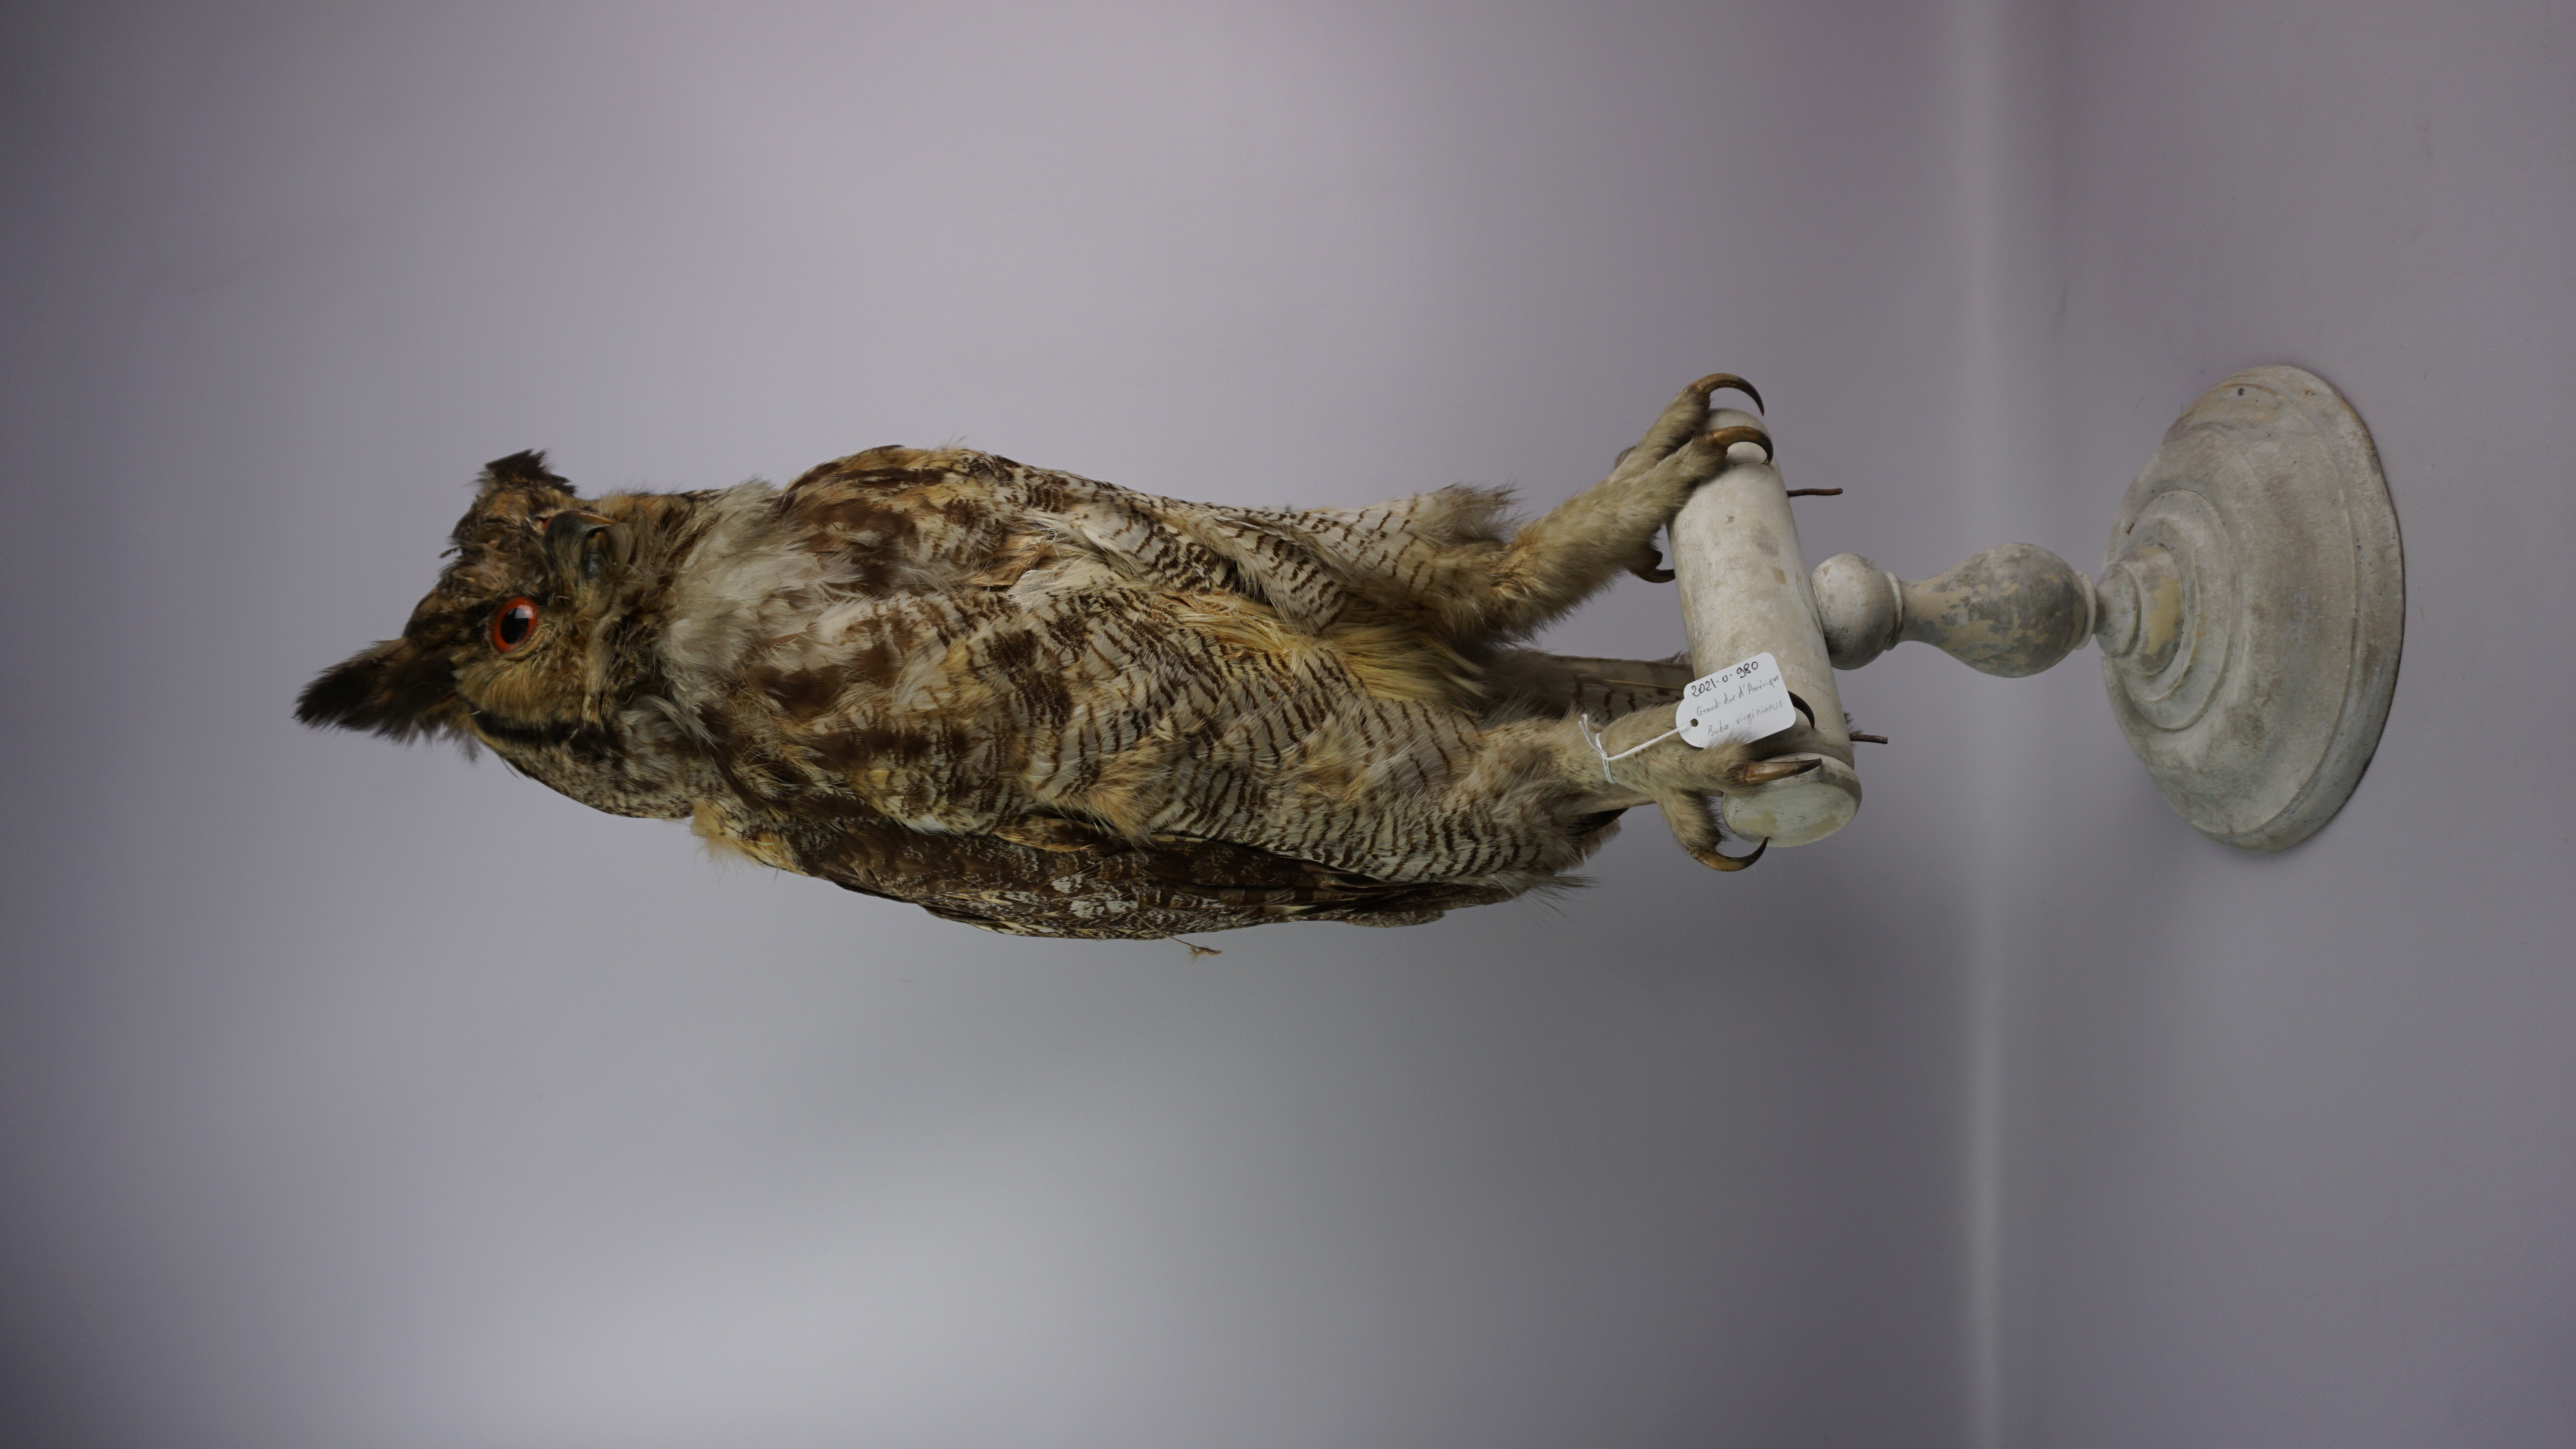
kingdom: Animalia
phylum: Chordata
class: Aves
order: Strigiformes
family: Strigidae
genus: Bubo
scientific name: Bubo virginianus
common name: Great horned owl
